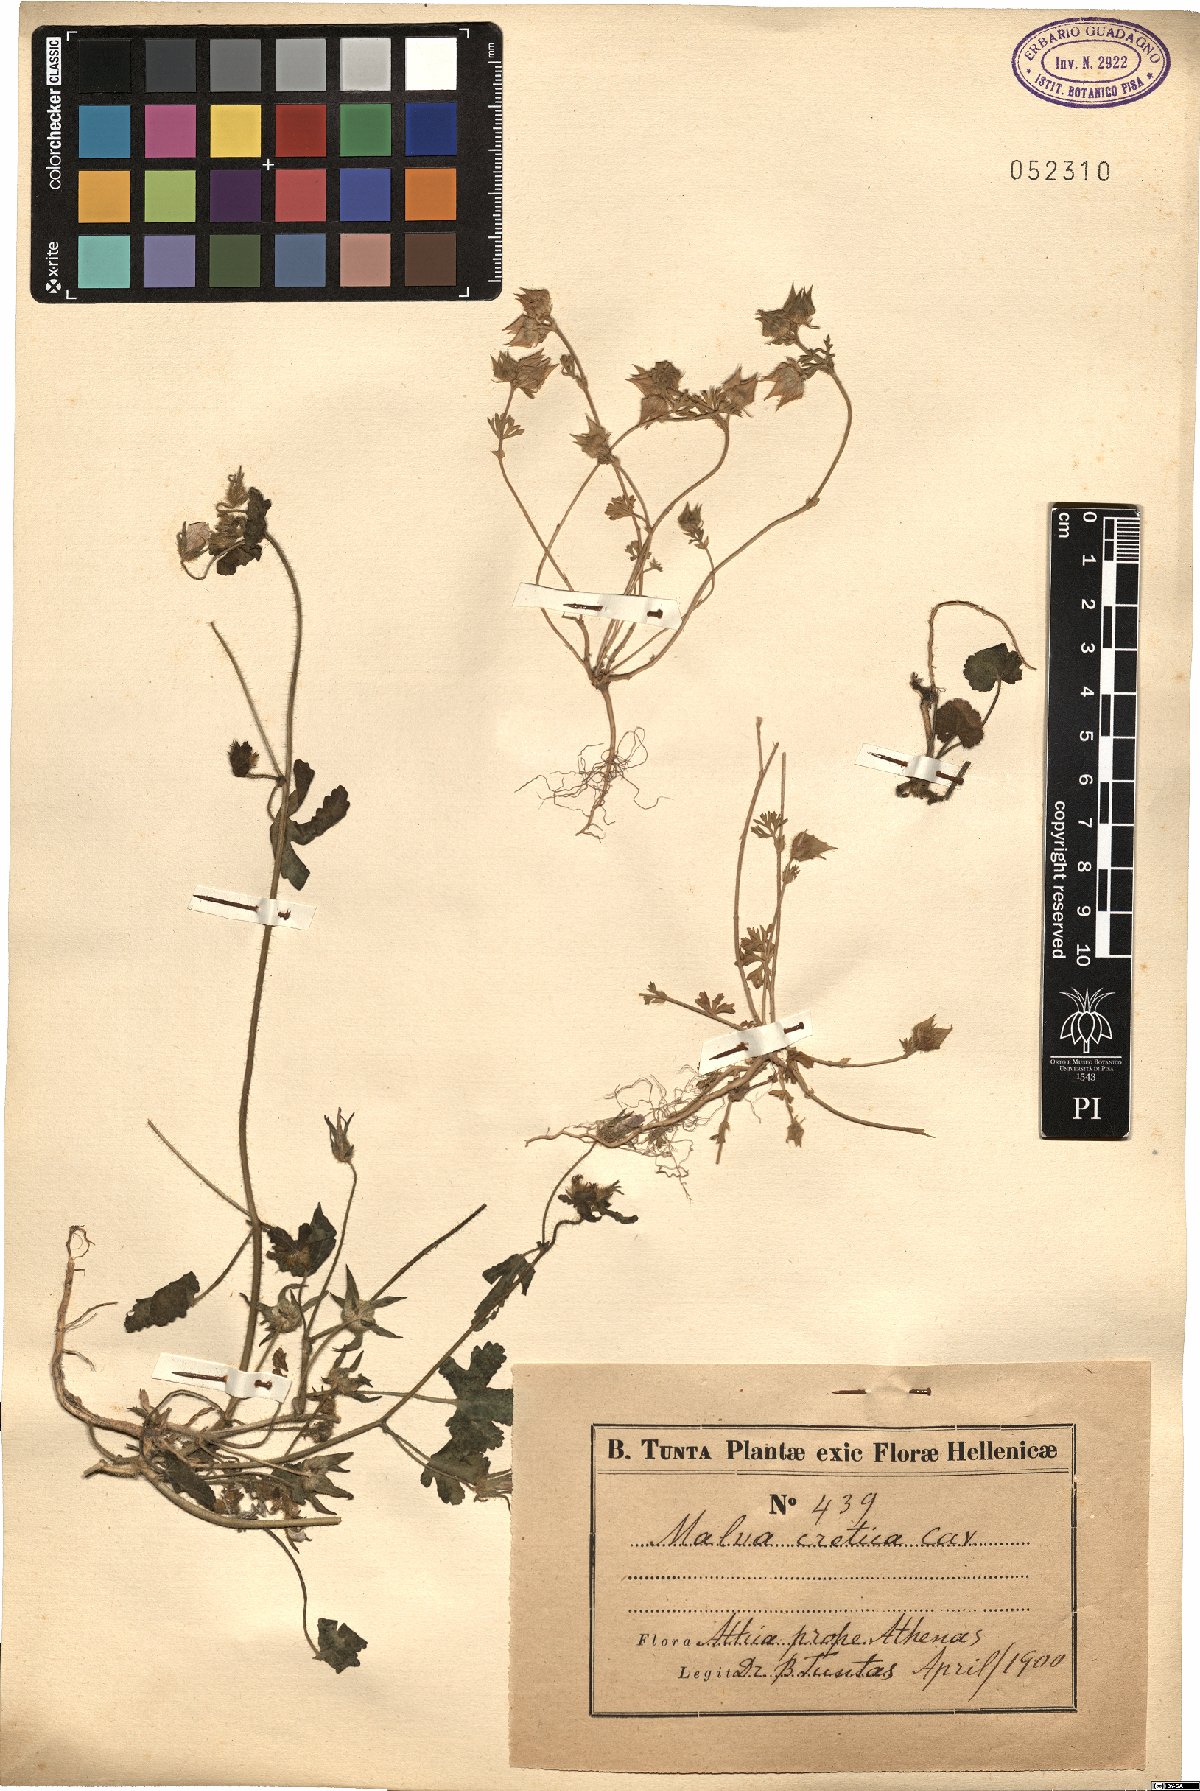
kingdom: Plantae
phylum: Tracheophyta
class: Magnoliopsida
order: Malvales
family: Malvaceae
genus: Malva
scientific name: Malva cretica
